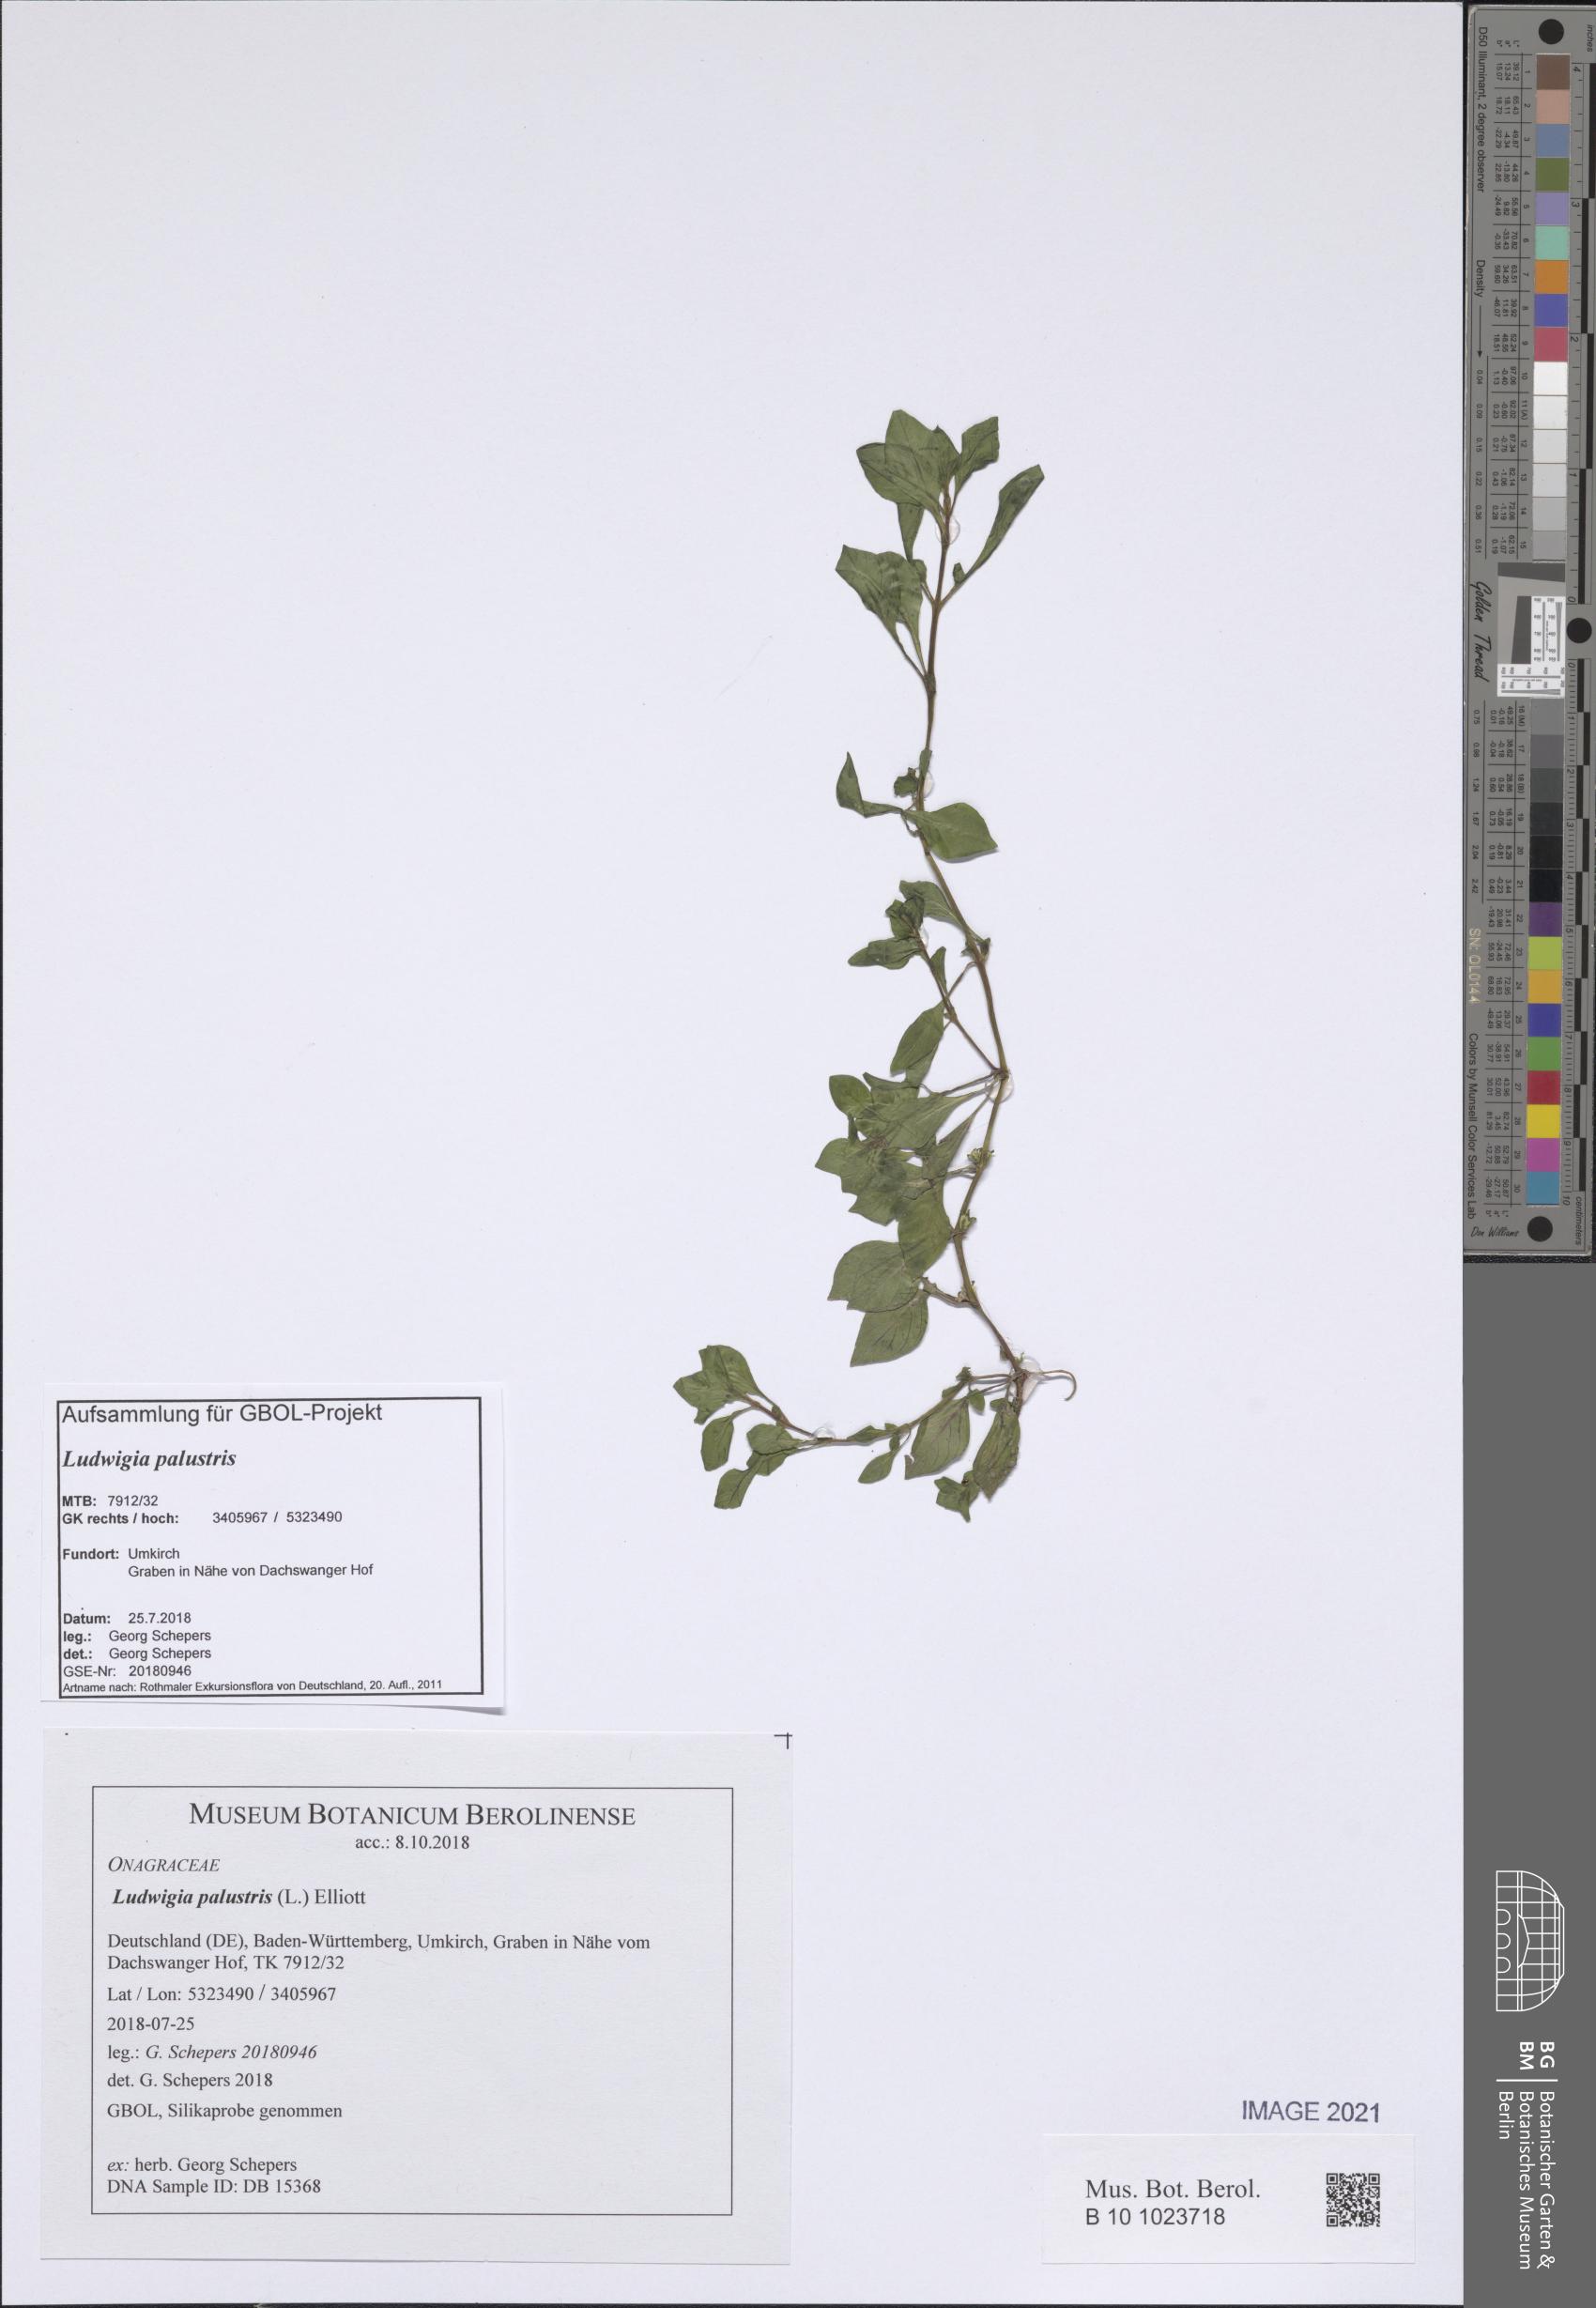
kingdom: Plantae
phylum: Tracheophyta
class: Magnoliopsida
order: Myrtales
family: Onagraceae
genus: Ludwigia
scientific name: Ludwigia palustris
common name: Hampshire-purslane
